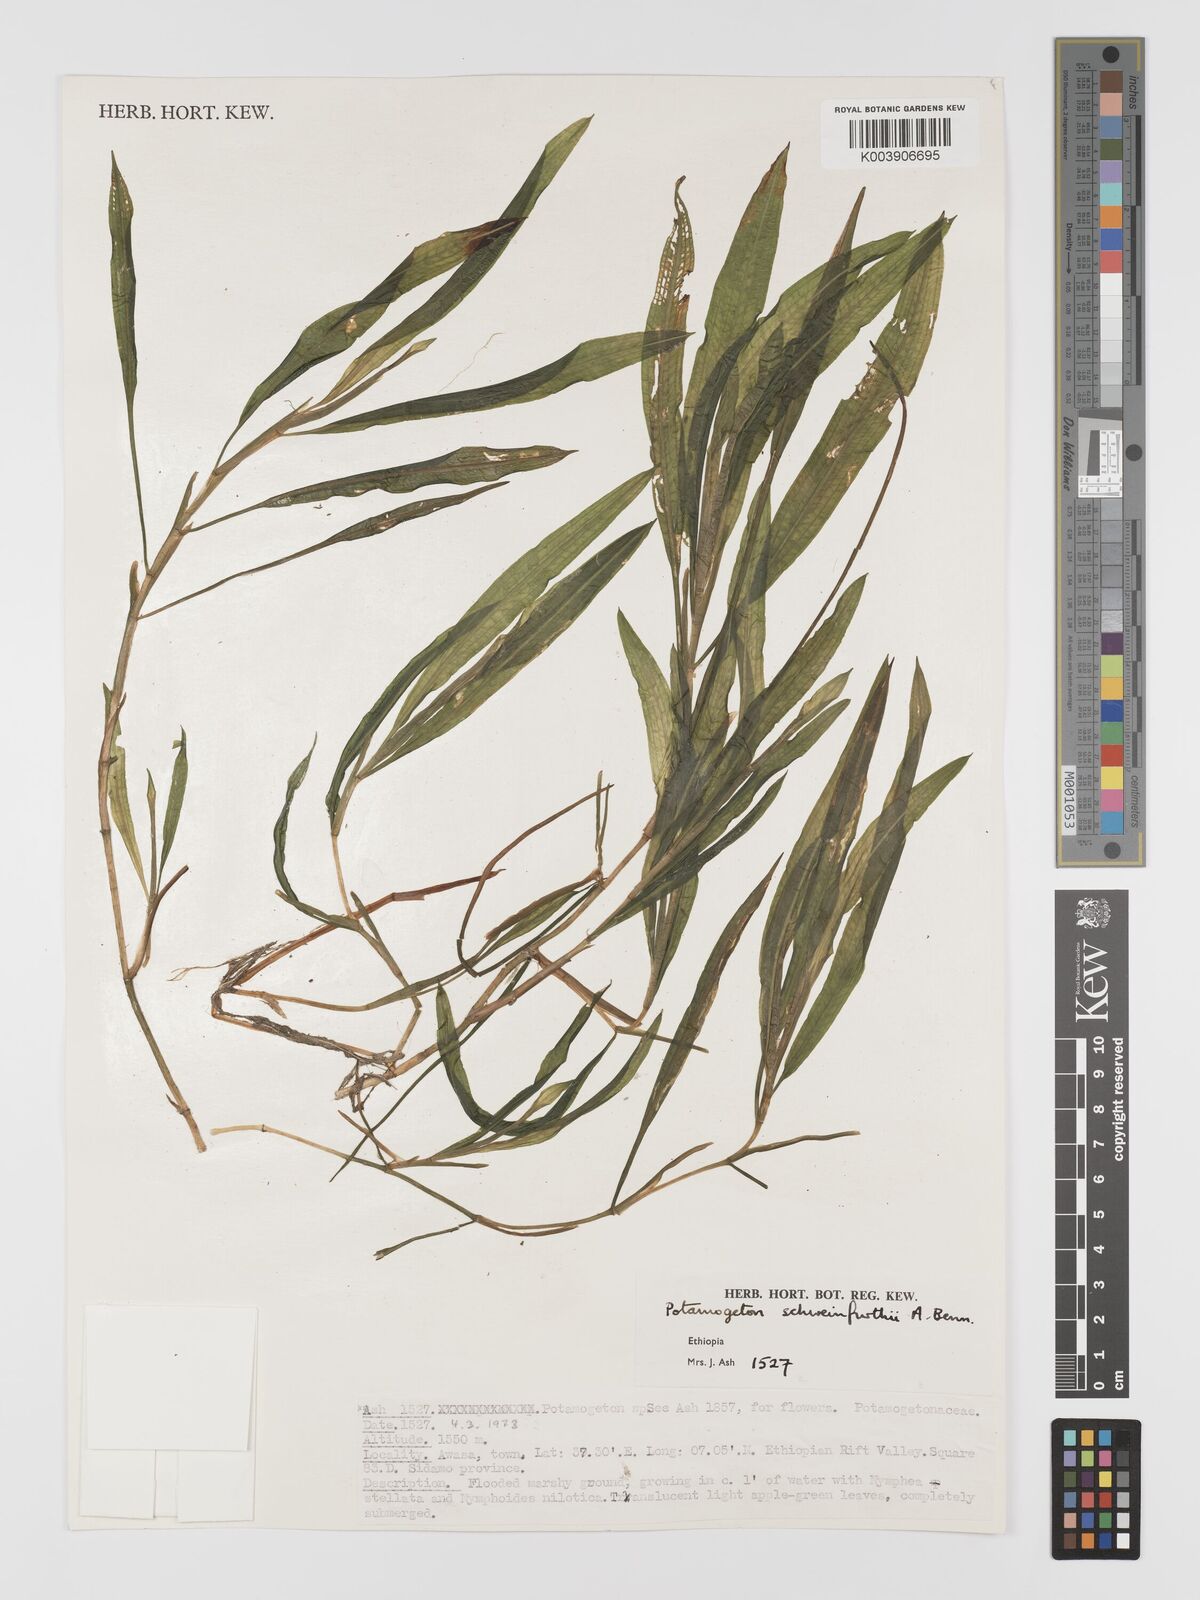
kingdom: Plantae
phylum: Tracheophyta
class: Liliopsida
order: Alismatales
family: Potamogetonaceae
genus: Potamogeton
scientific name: Potamogeton schweinfurthii
